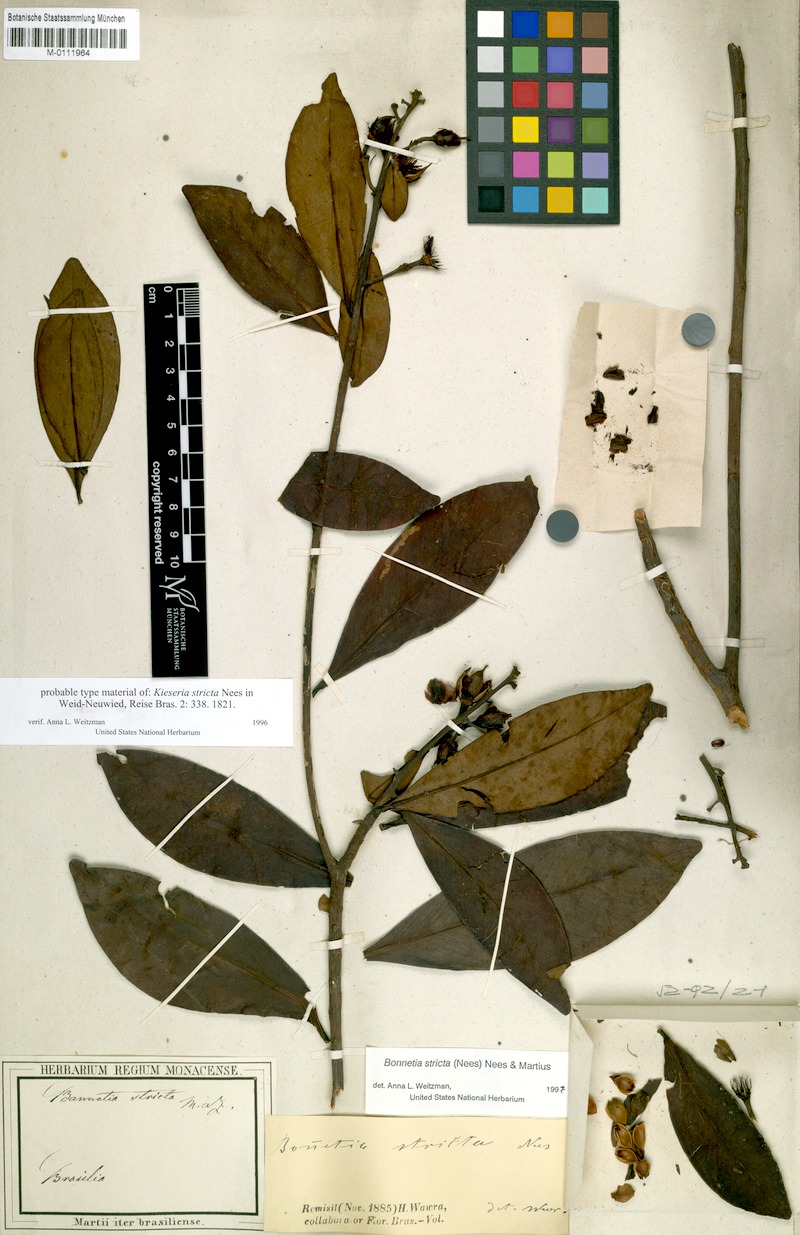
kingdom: Plantae
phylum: Tracheophyta
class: Magnoliopsida
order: Malpighiales
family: Bonnetiaceae
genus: Bonnetia
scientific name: Bonnetia stricta
